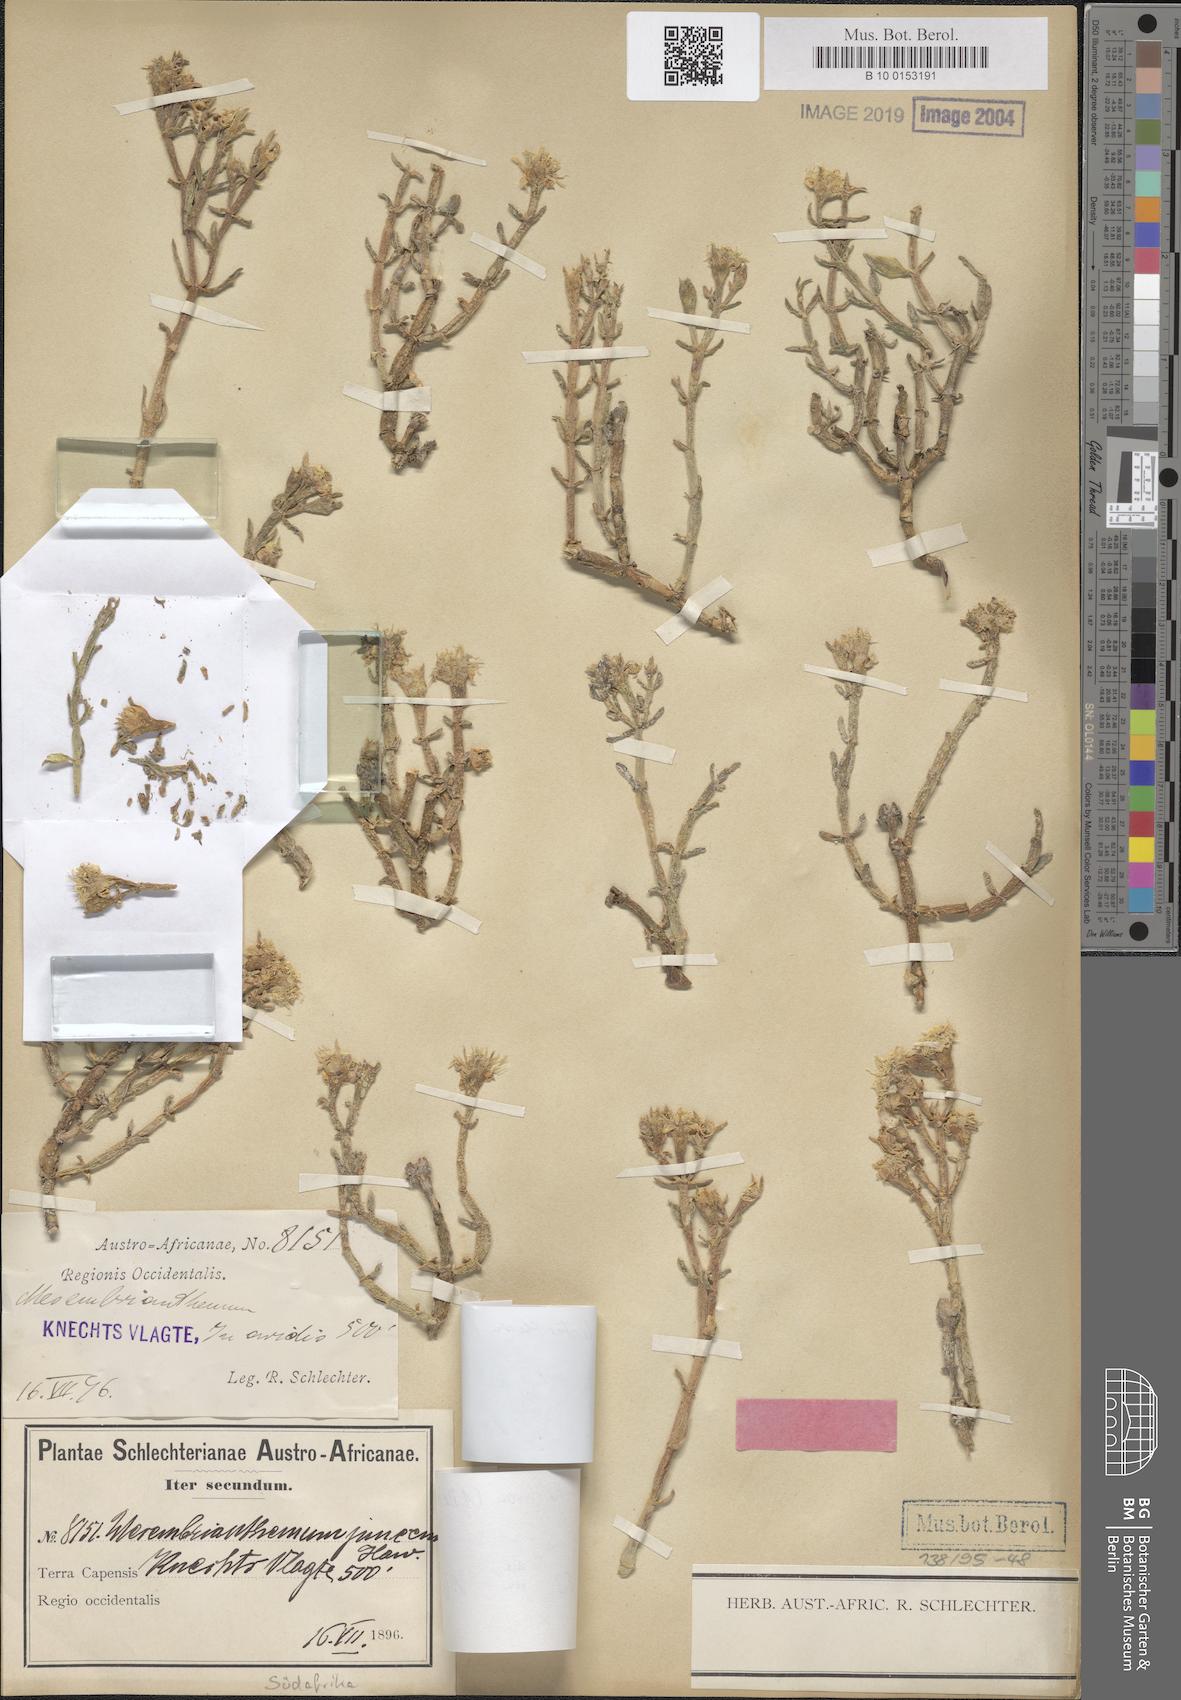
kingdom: Plantae
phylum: Tracheophyta
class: Magnoliopsida
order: Caryophyllales
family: Aizoaceae
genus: Mesembryanthemum
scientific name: Mesembryanthemum leptarthron
